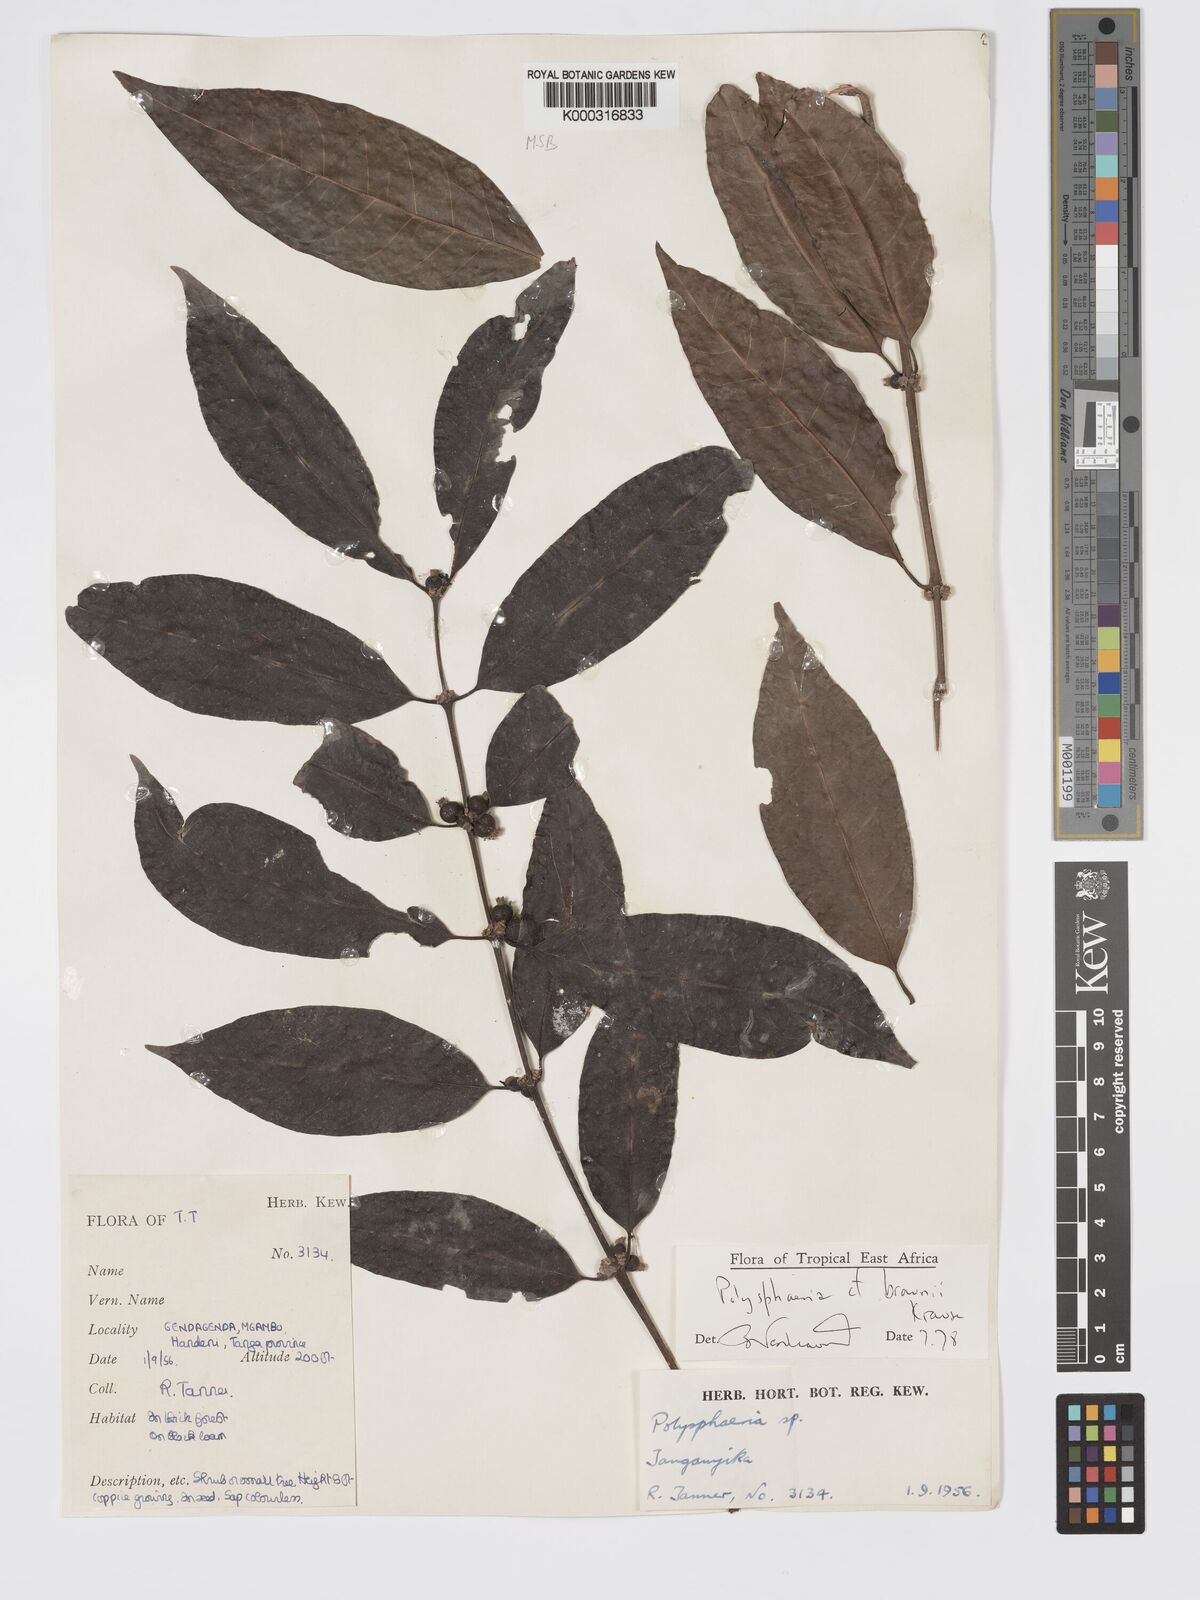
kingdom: Plantae
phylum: Tracheophyta
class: Magnoliopsida
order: Gentianales
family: Rubiaceae
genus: Polysphaeria
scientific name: Polysphaeria braunii
